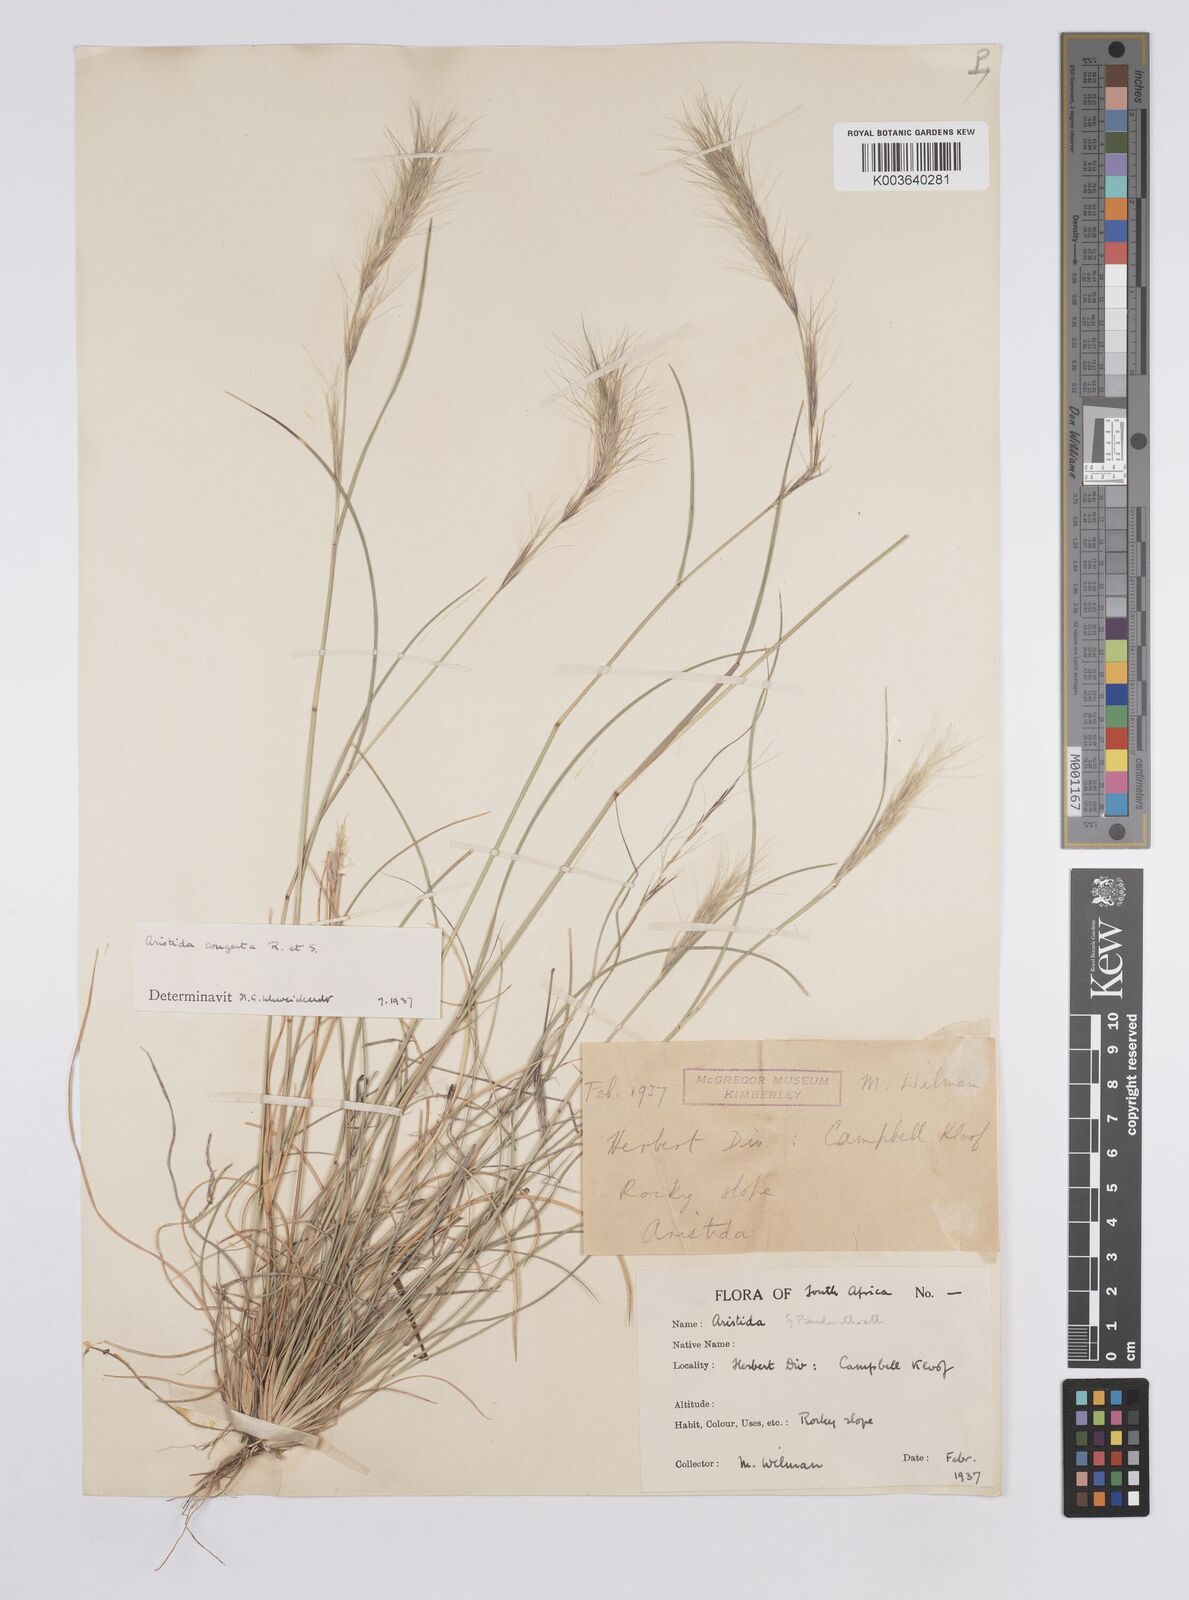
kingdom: Plantae
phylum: Tracheophyta
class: Liliopsida
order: Poales
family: Poaceae
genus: Aristida
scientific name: Aristida congesta
